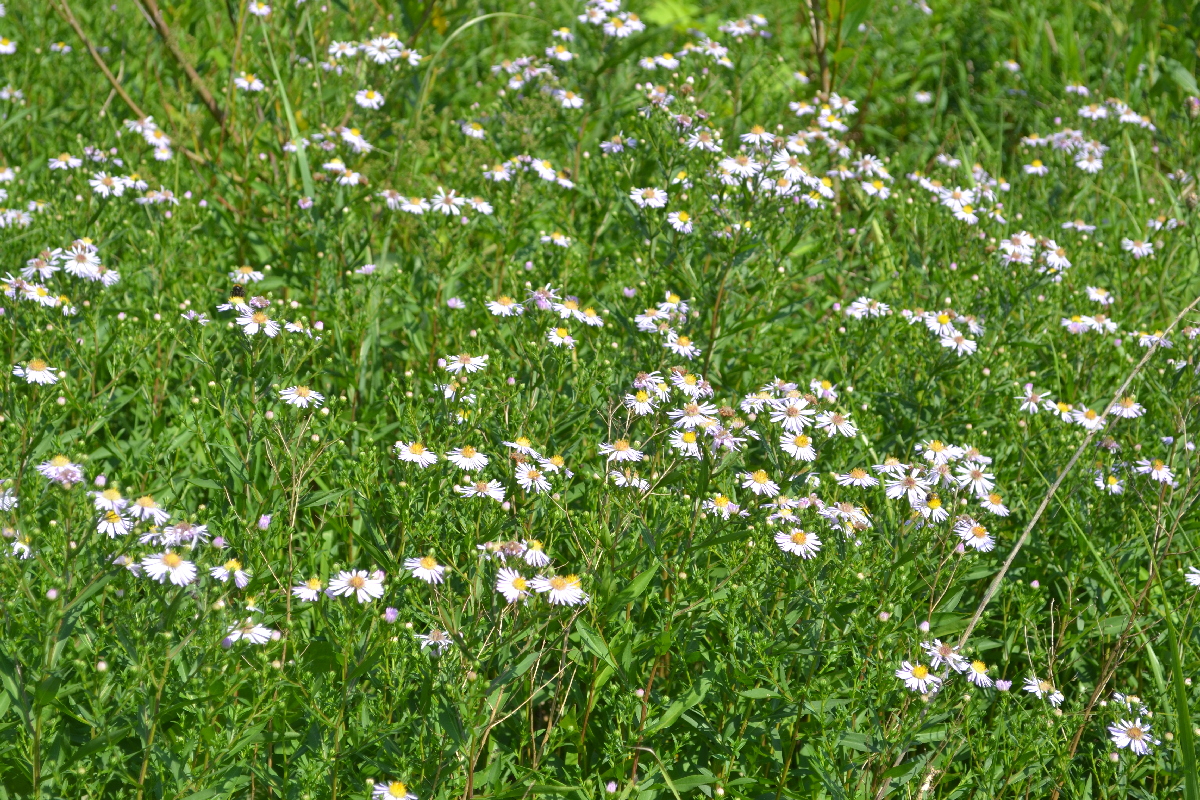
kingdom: Plantae
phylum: Tracheophyta
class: Magnoliopsida
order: Asterales
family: Asteraceae
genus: Erigeron
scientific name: Erigeron annuus
